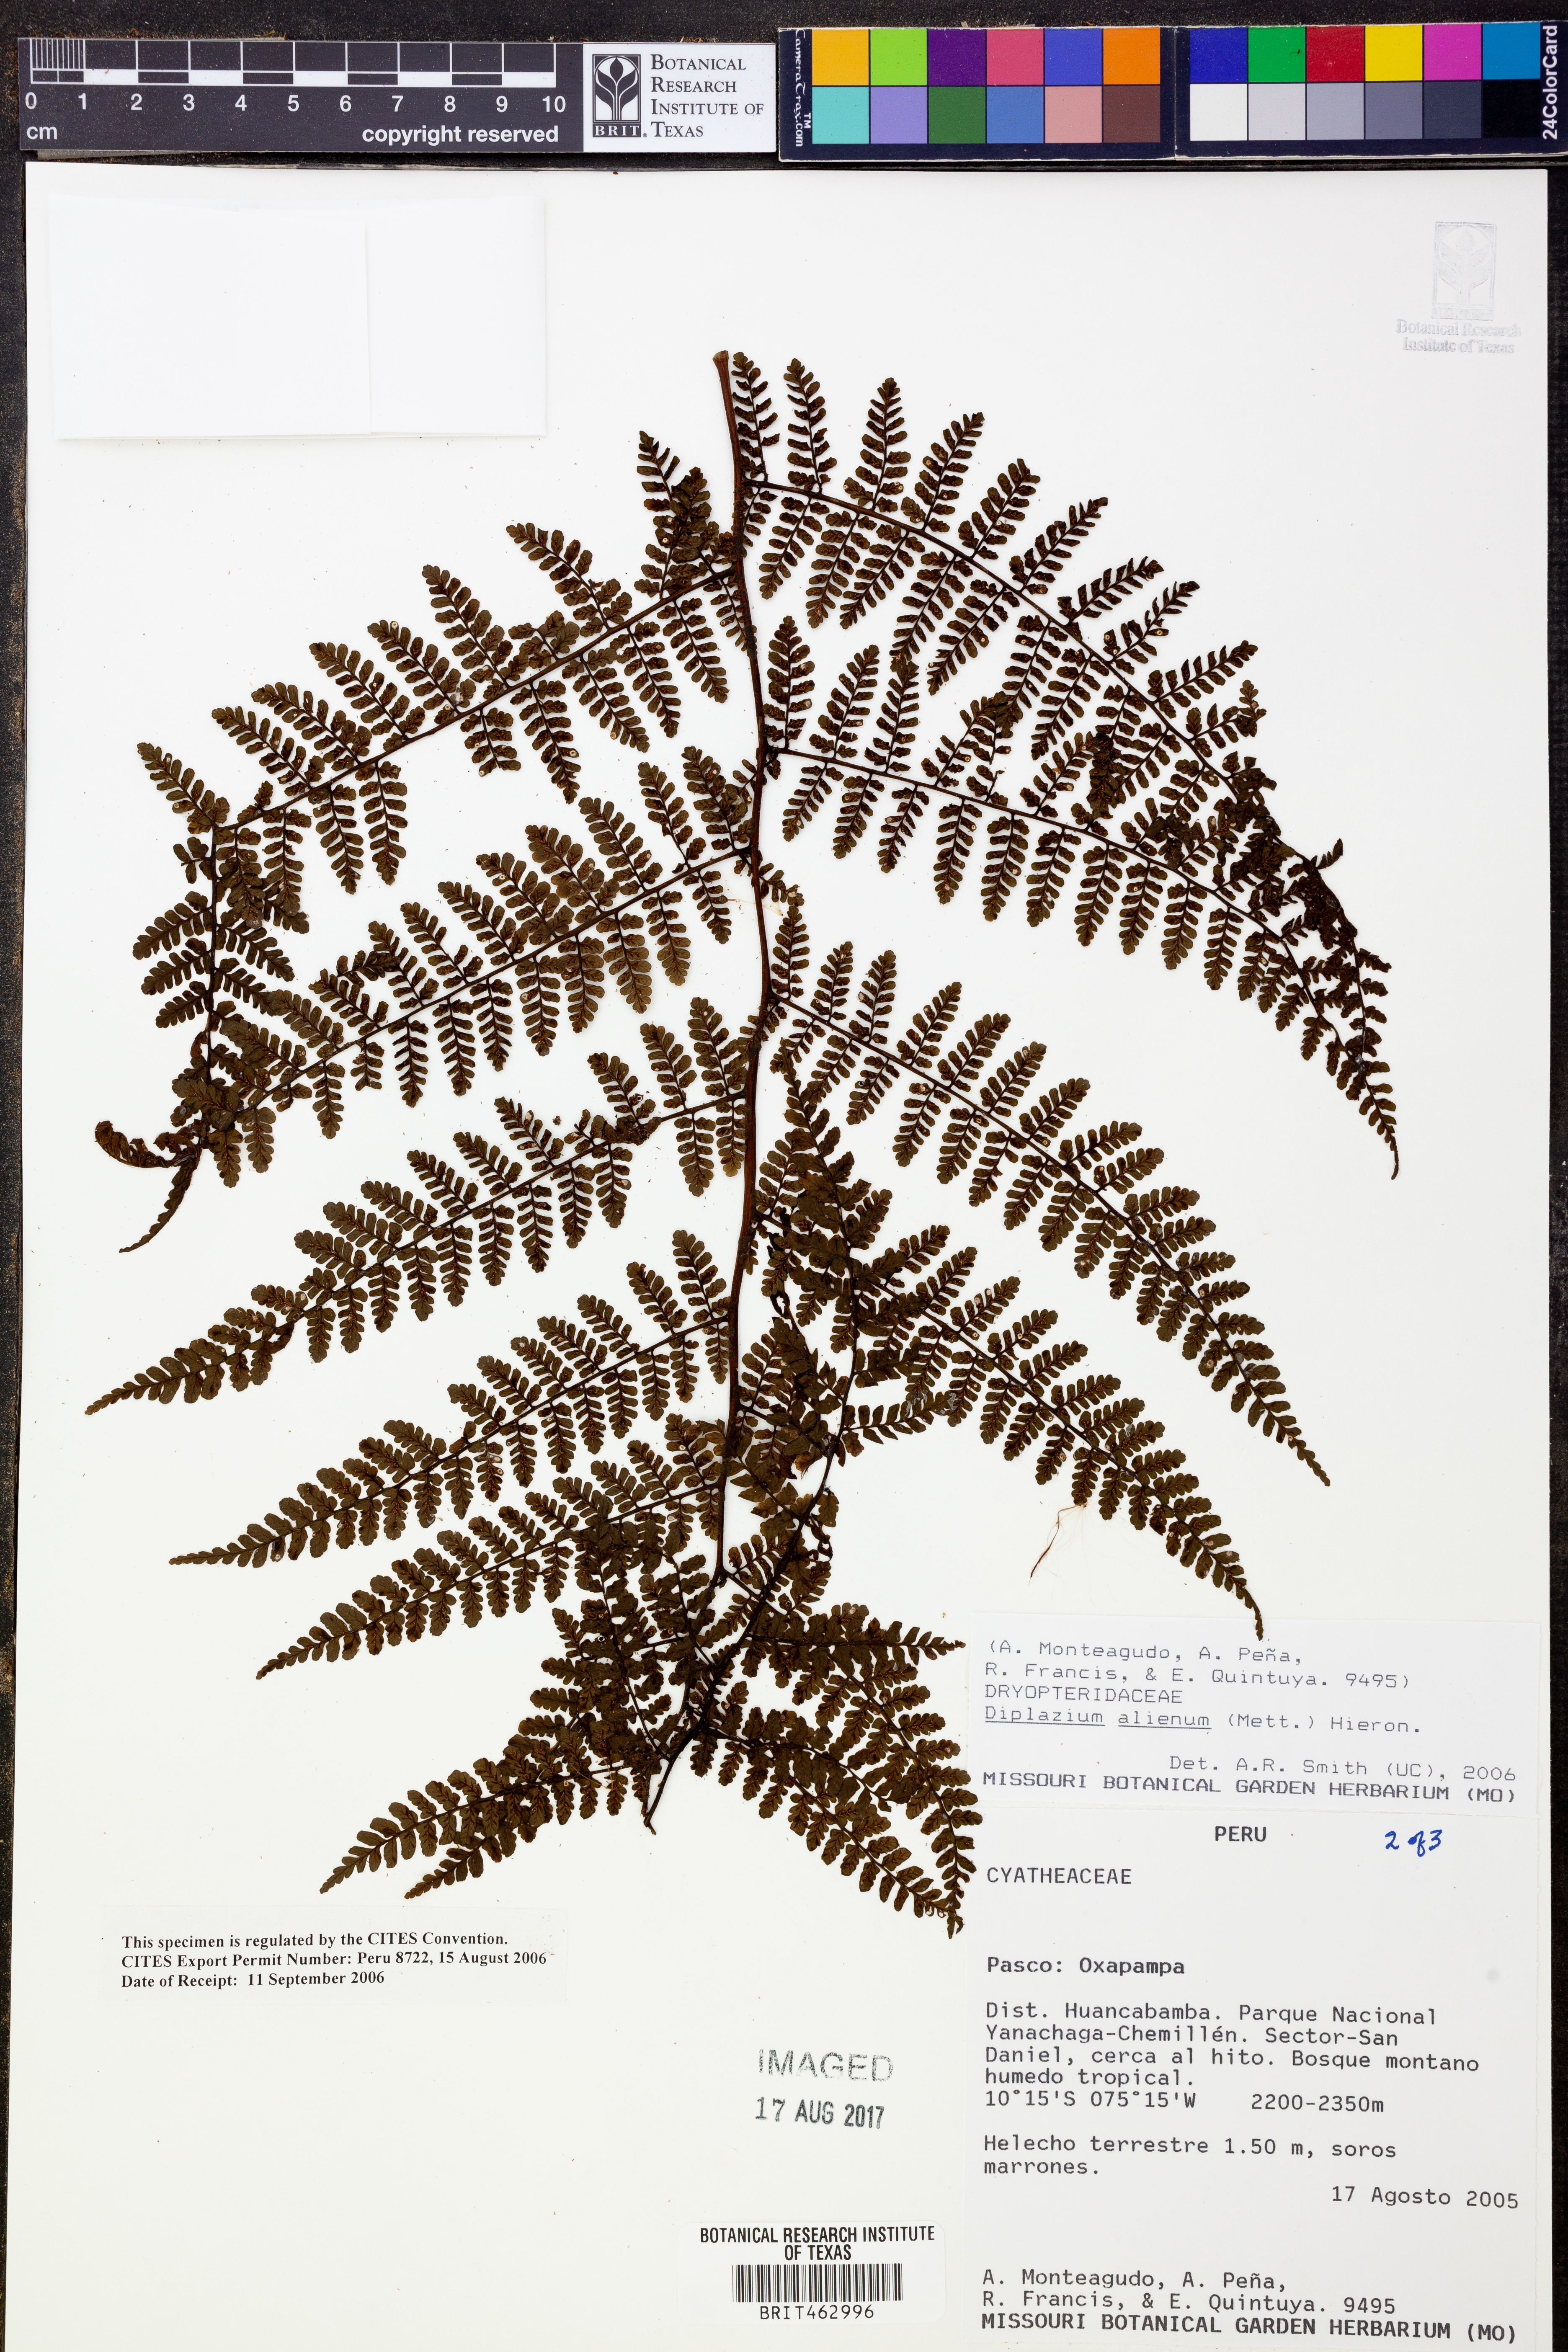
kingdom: Plantae
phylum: Tracheophyta
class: Polypodiopsida
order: Polypodiales
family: Athyriaceae
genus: Diplazium
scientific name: Diplazium alienum
